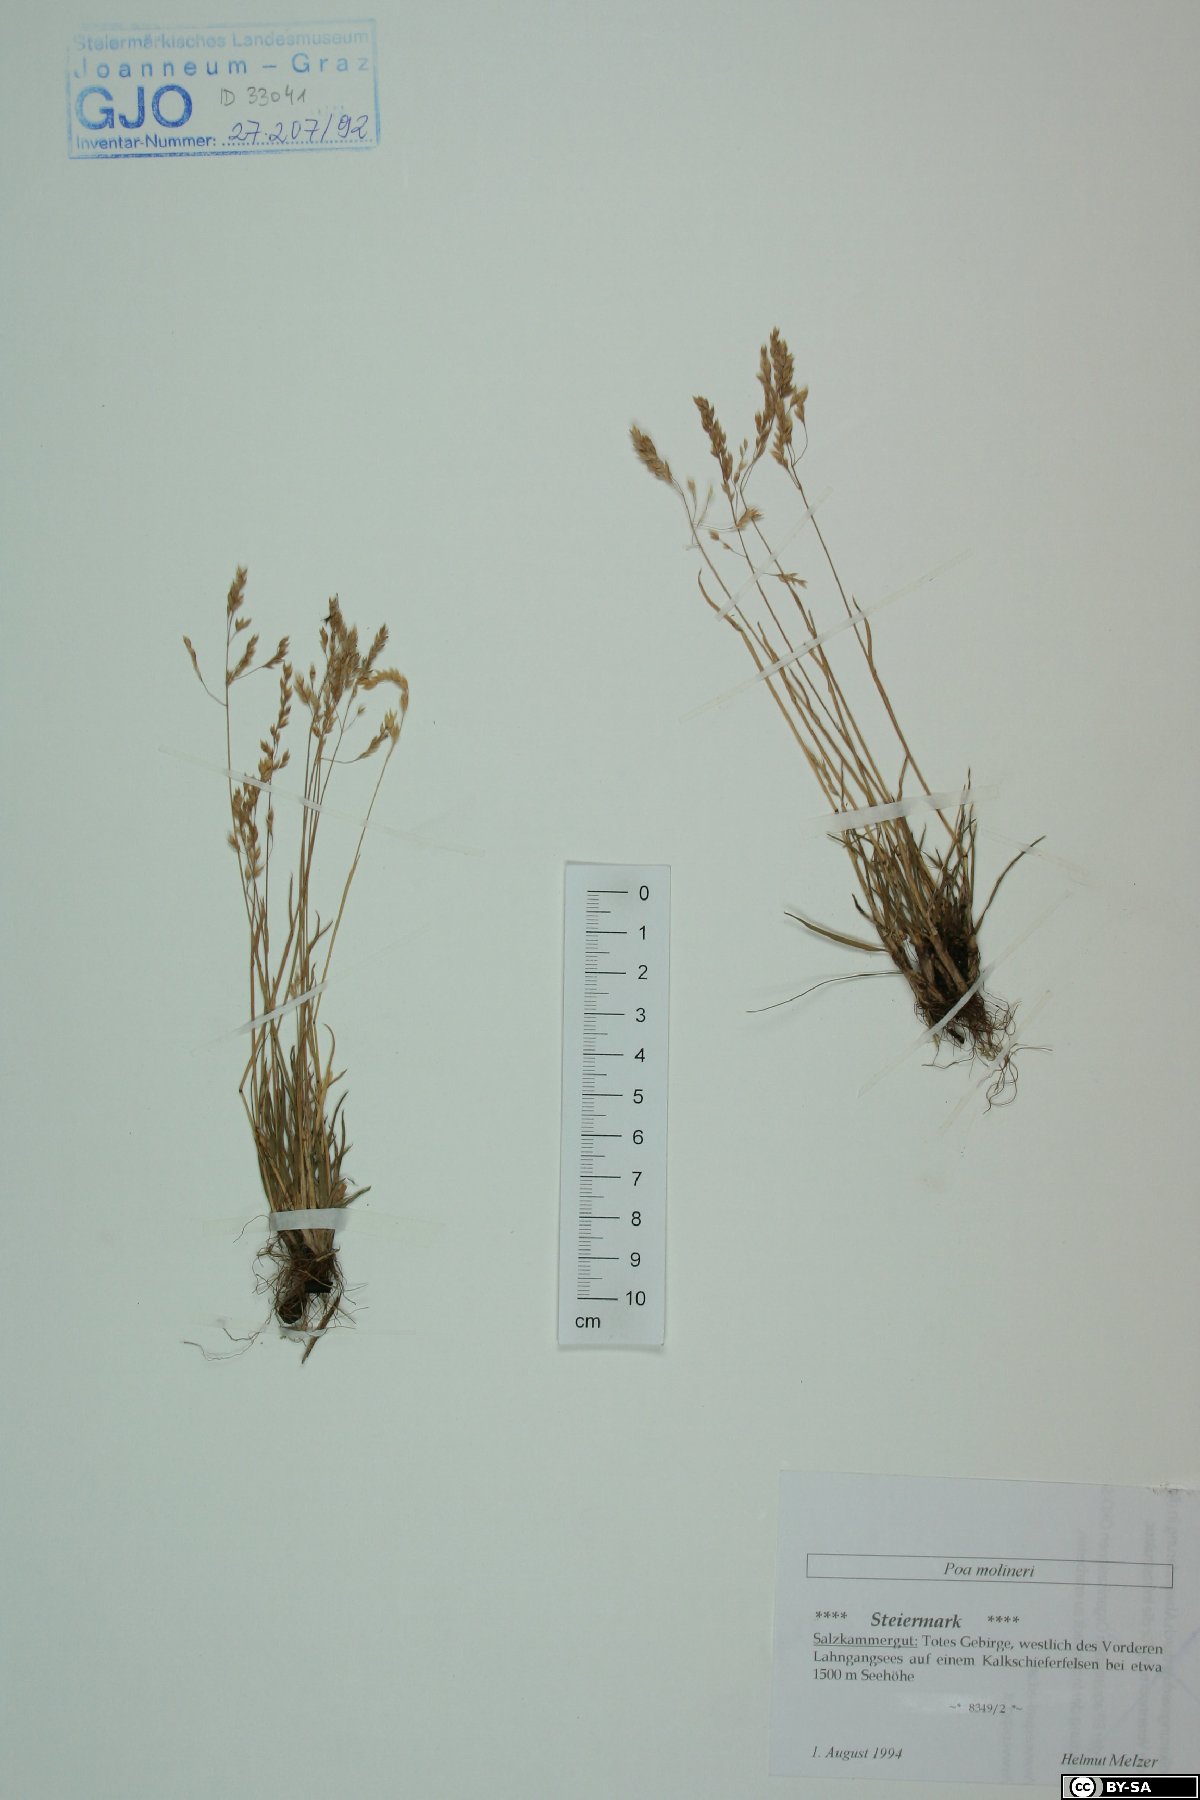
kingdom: Plantae
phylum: Tracheophyta
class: Liliopsida
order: Poales
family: Poaceae
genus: Poa
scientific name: Poa molinerii
